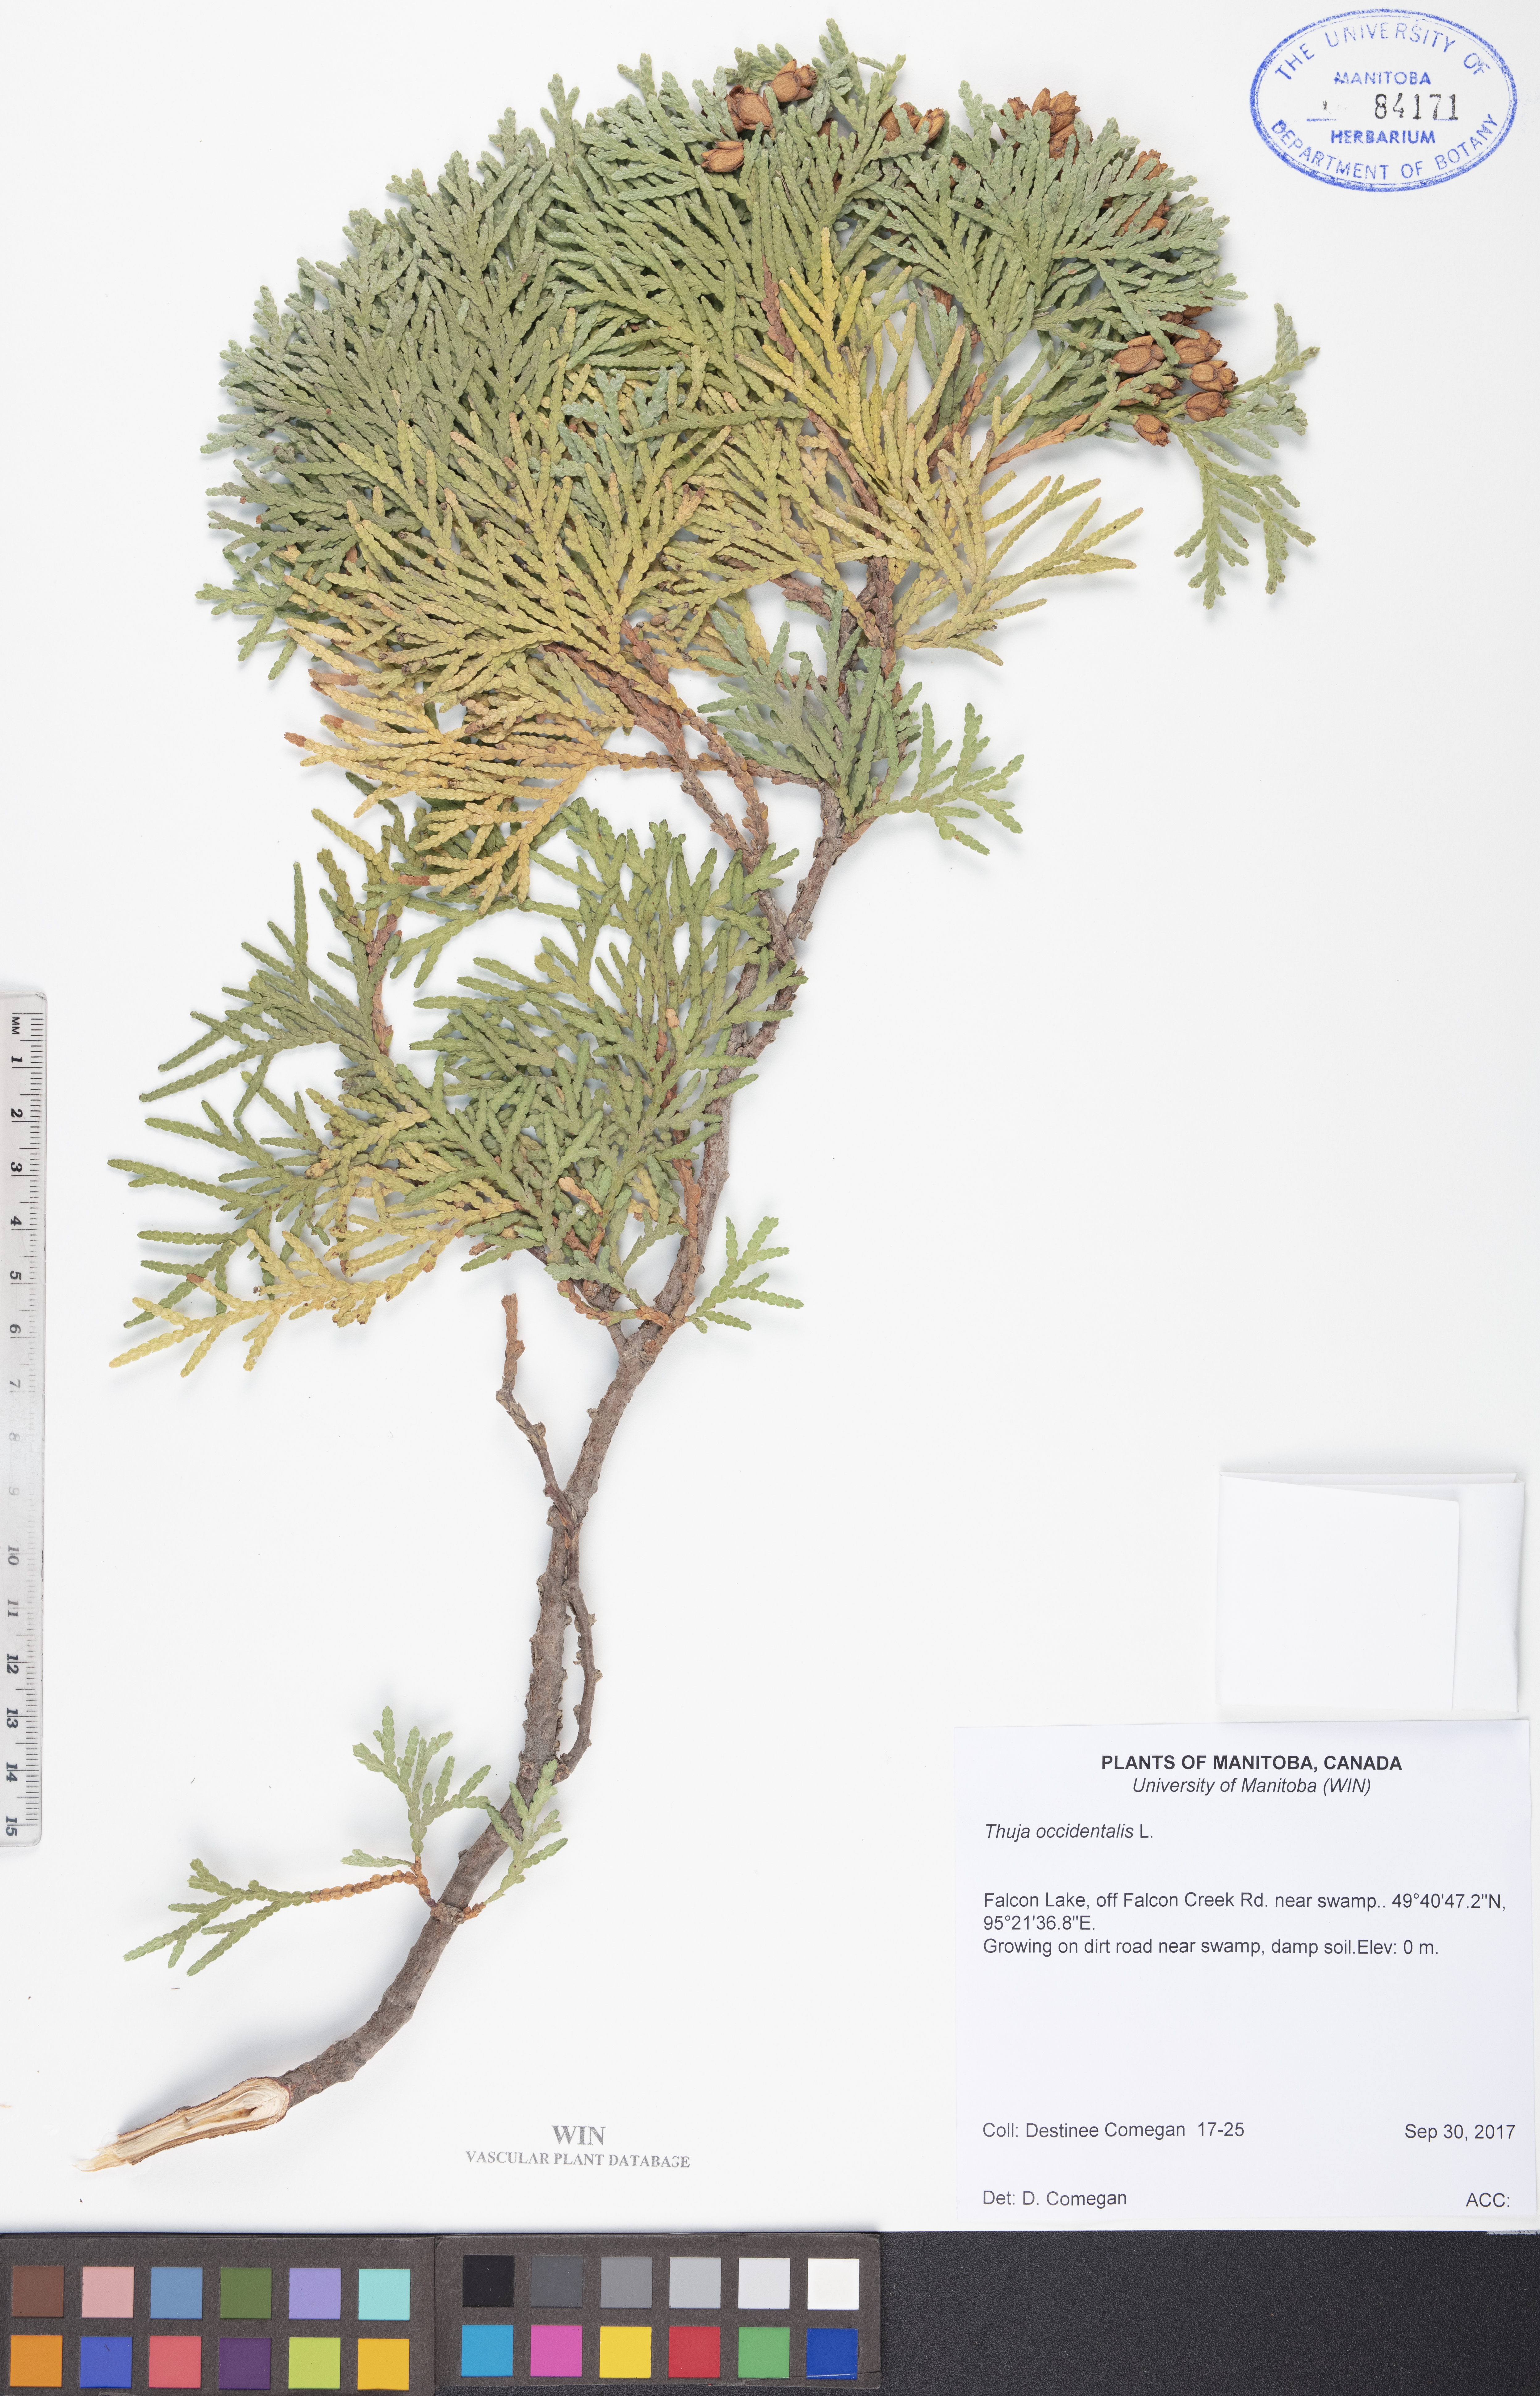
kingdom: Plantae
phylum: Tracheophyta
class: Pinopsida
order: Pinales
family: Cupressaceae
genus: Thuja
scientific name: Thuja occidentalis
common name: Northern white-cedar
